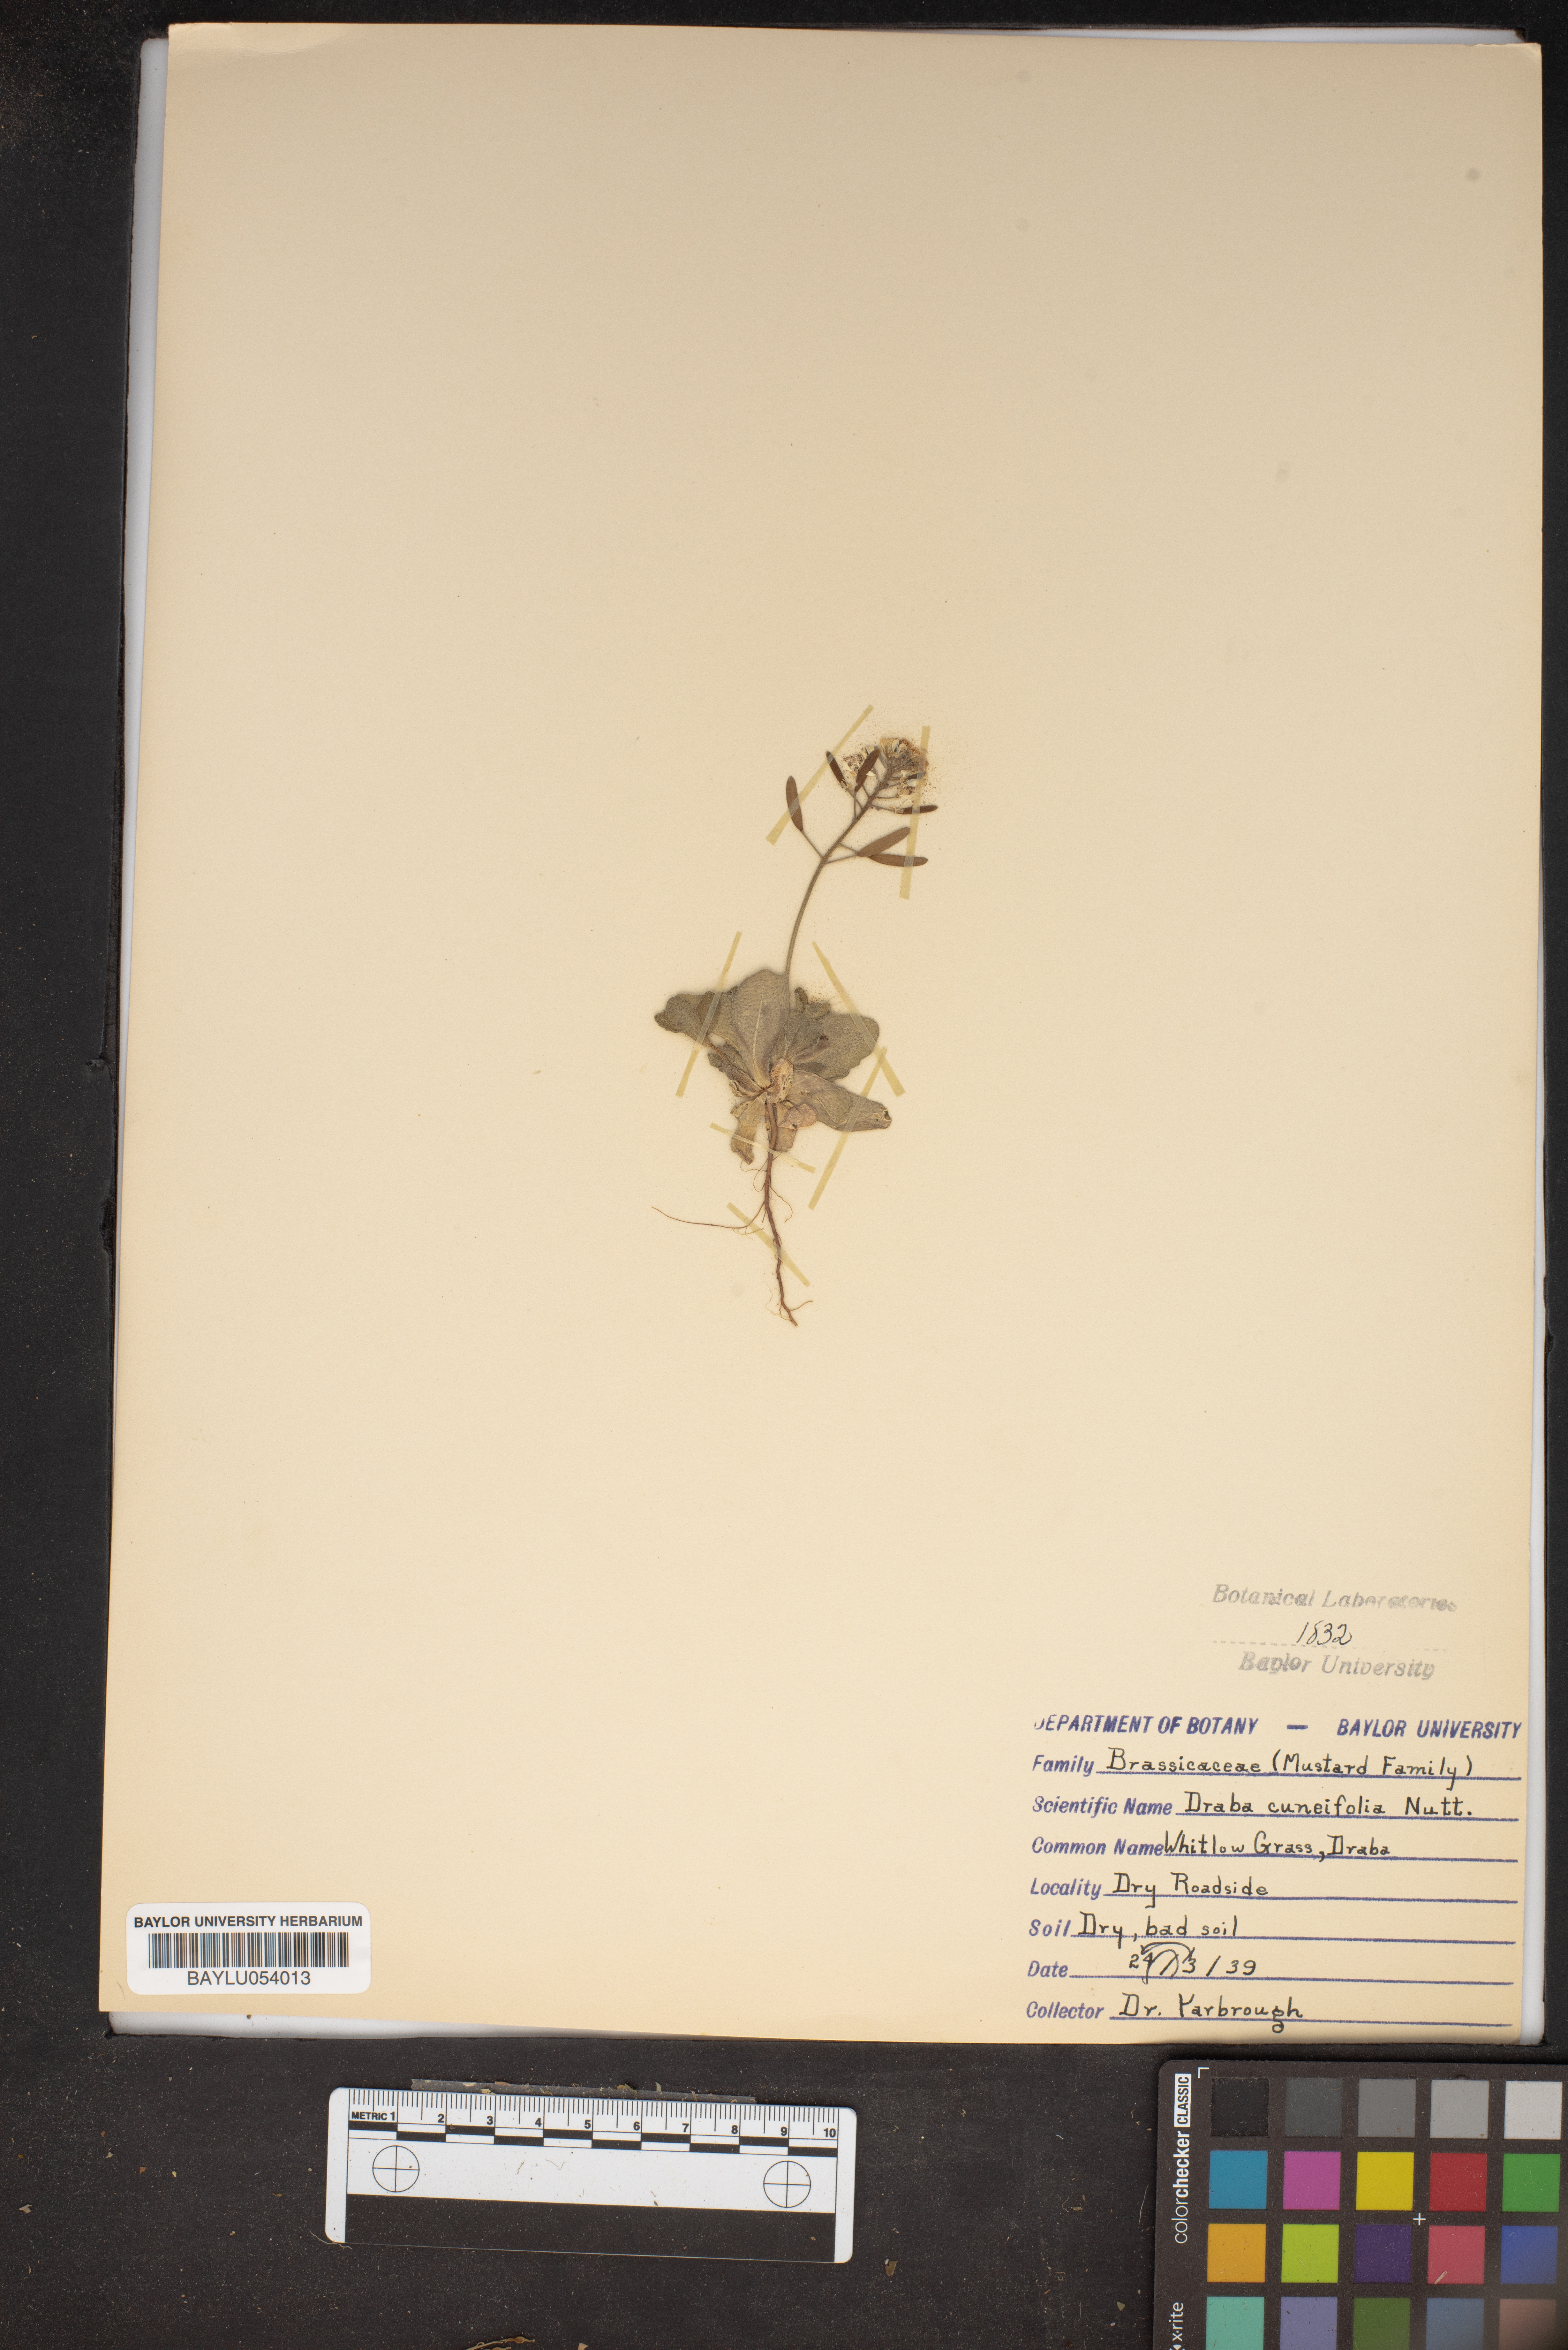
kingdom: Plantae
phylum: Tracheophyta
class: Magnoliopsida
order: Brassicales
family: Brassicaceae
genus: Tomostima
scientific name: Tomostima cuneifolia
